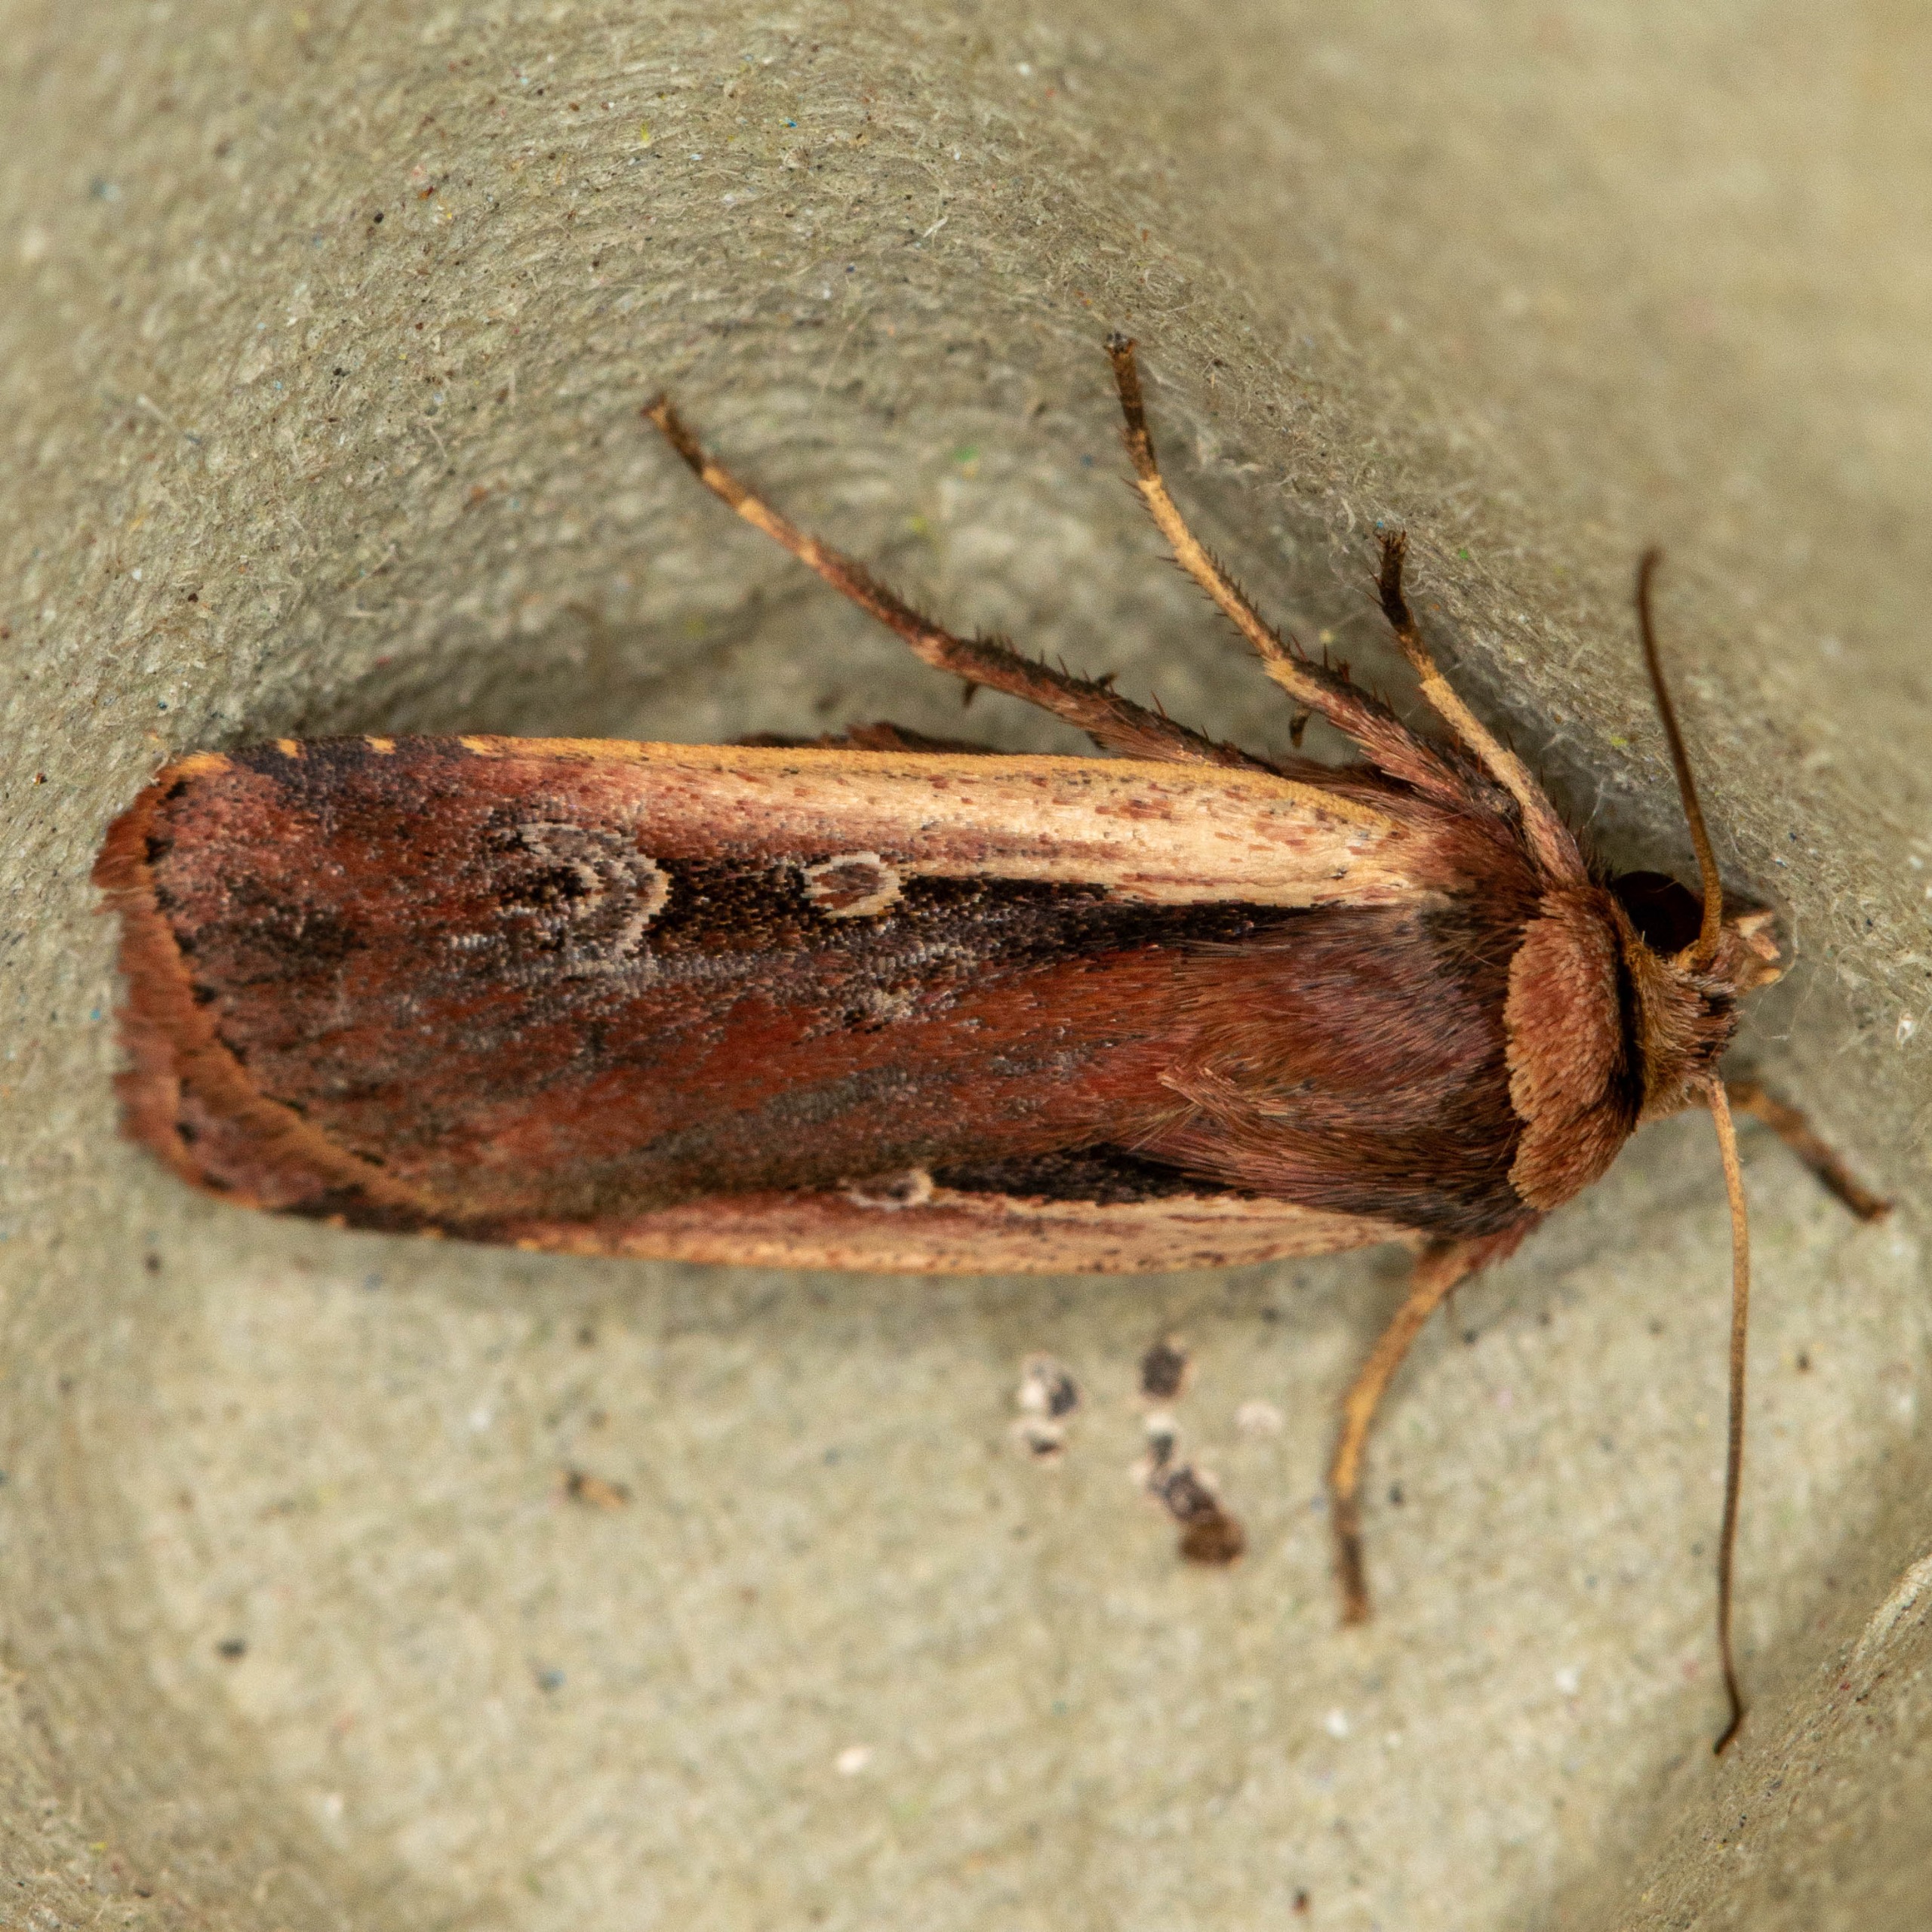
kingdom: Animalia
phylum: Arthropoda
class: Insecta
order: Lepidoptera
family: Noctuidae
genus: Ochropleura
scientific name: Ochropleura plecta
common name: Hvidrandet jordugle
